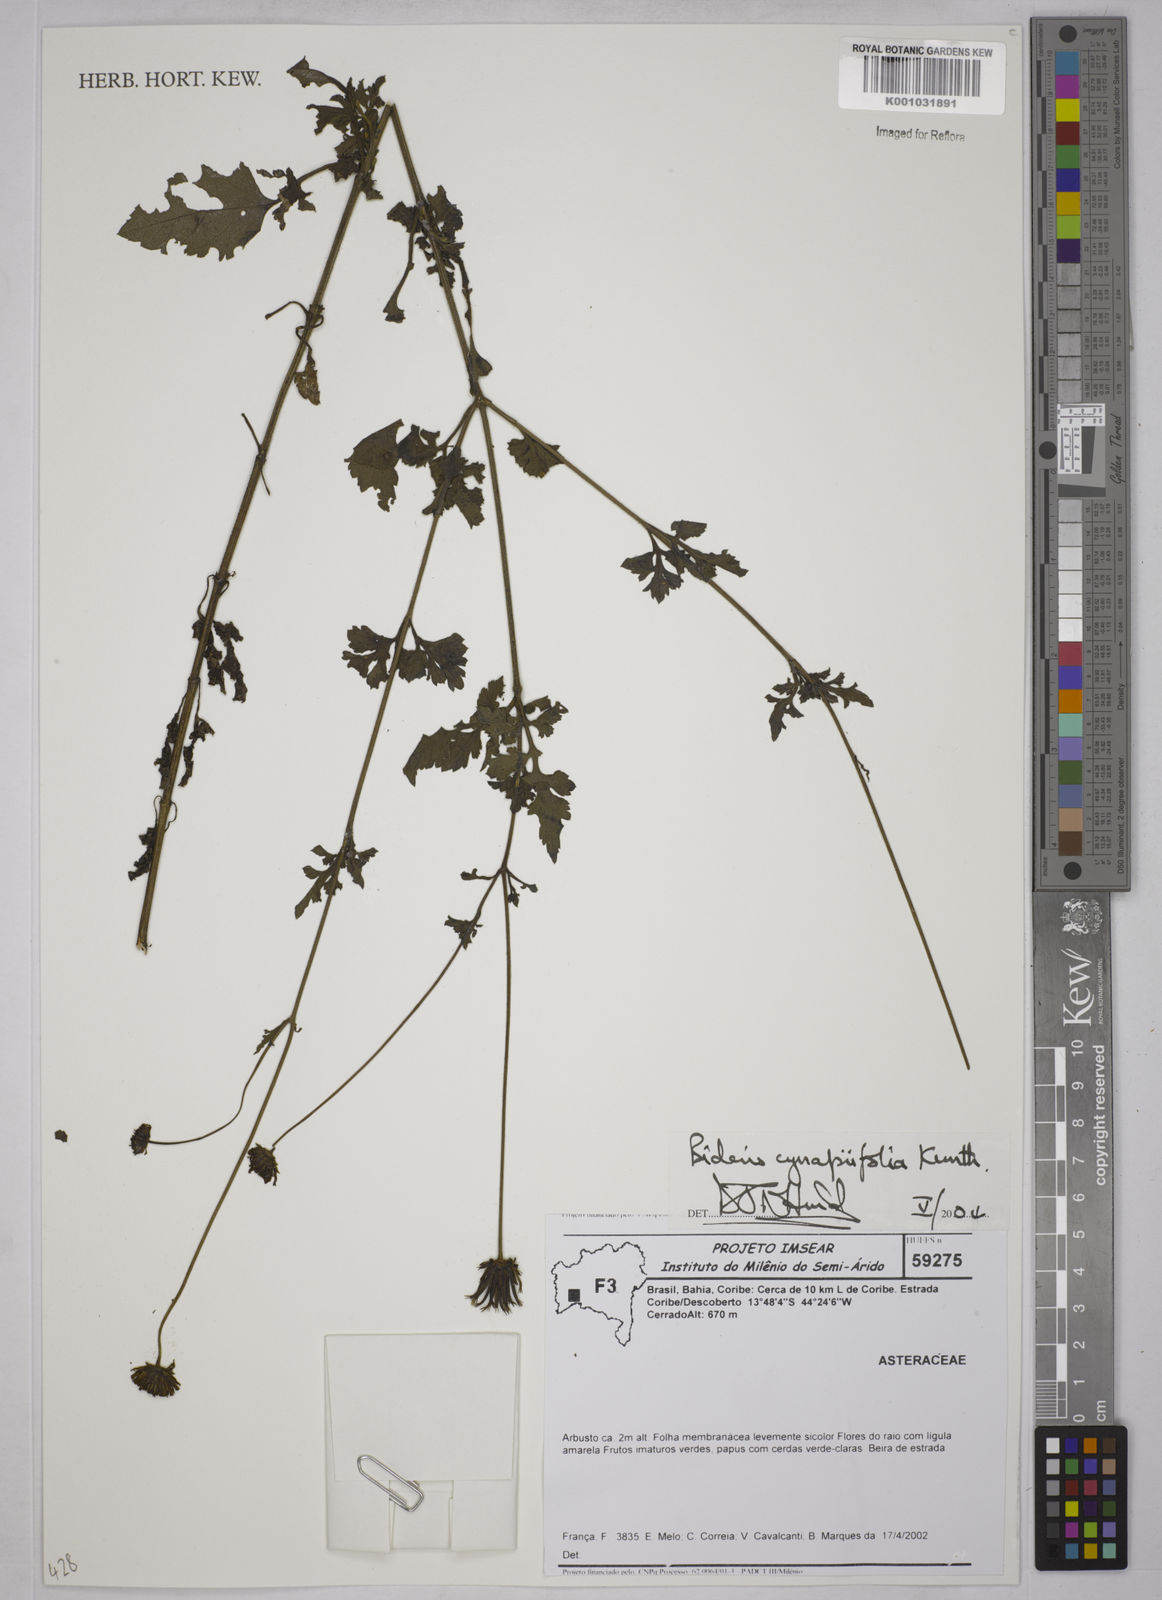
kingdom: Plantae
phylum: Tracheophyta
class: Magnoliopsida
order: Asterales
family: Asteraceae
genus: Bidens
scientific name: Bidens cynapiifolia
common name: Beggar's tick
